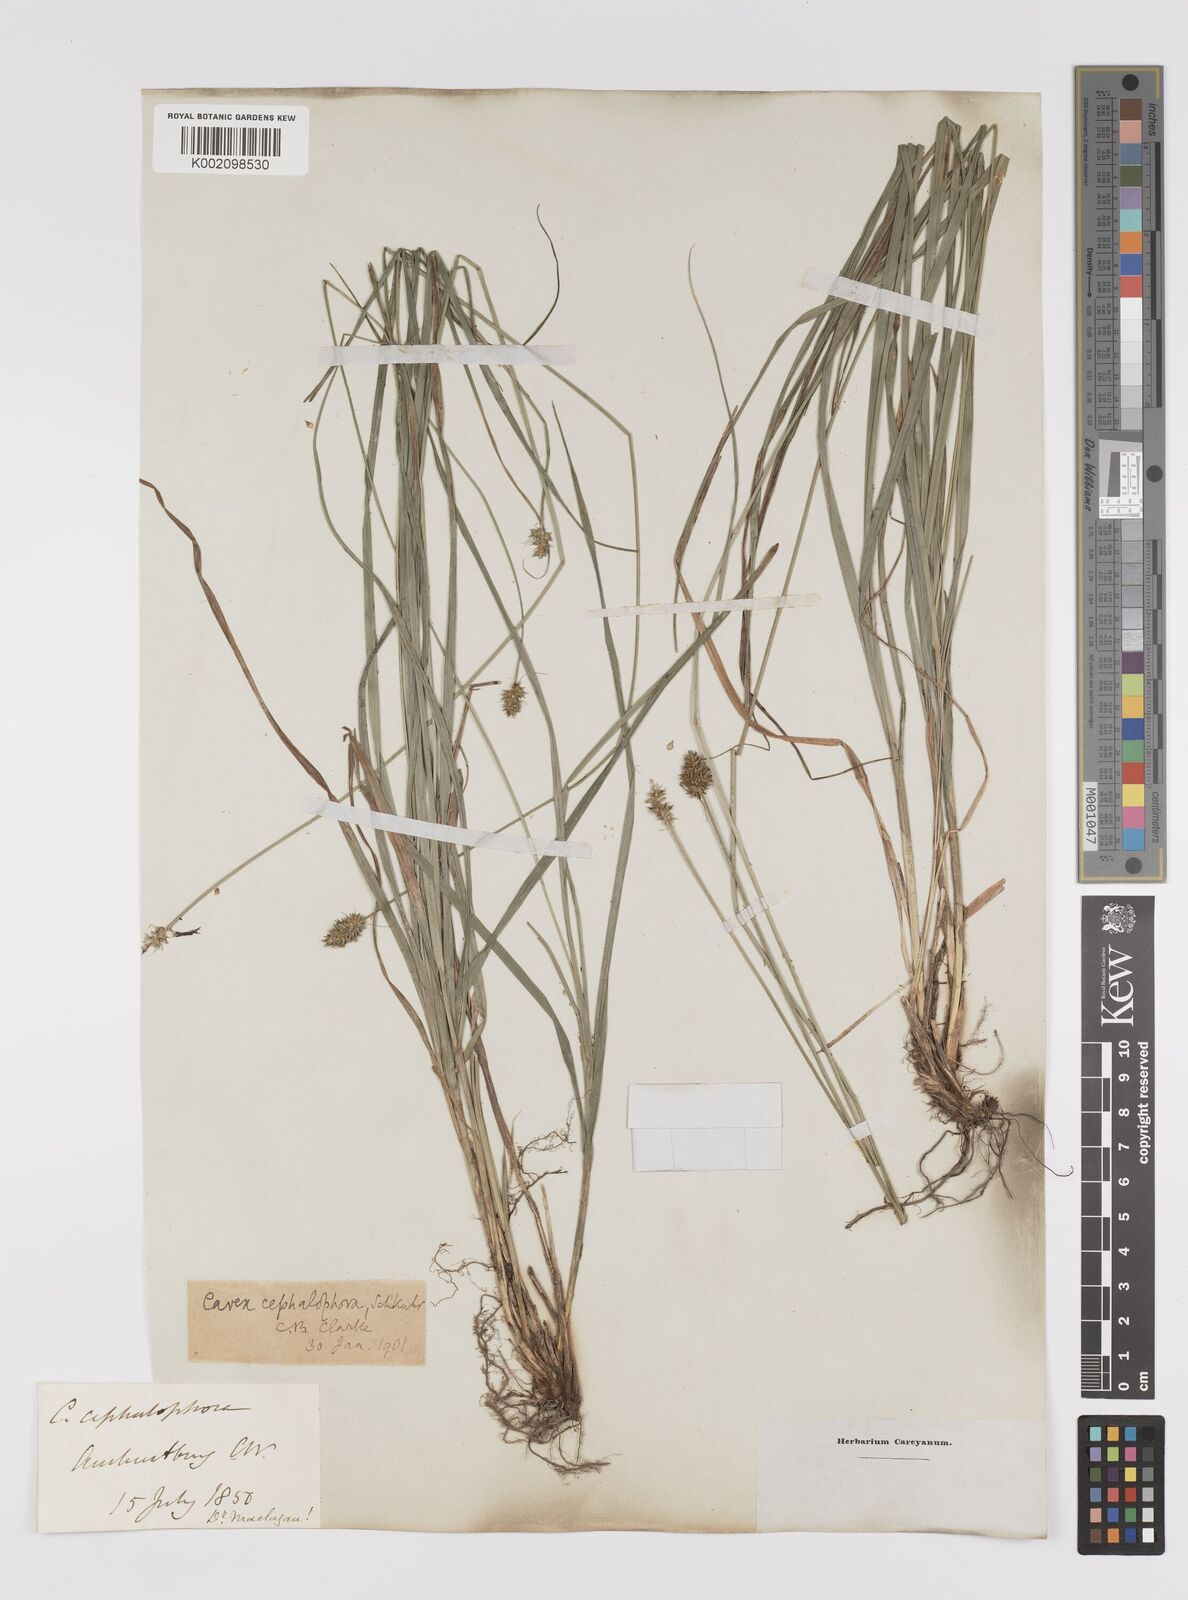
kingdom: Plantae
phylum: Tracheophyta
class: Liliopsida
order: Poales
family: Cyperaceae
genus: Carex
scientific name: Carex cephalophora
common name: Oval-headed sedge
